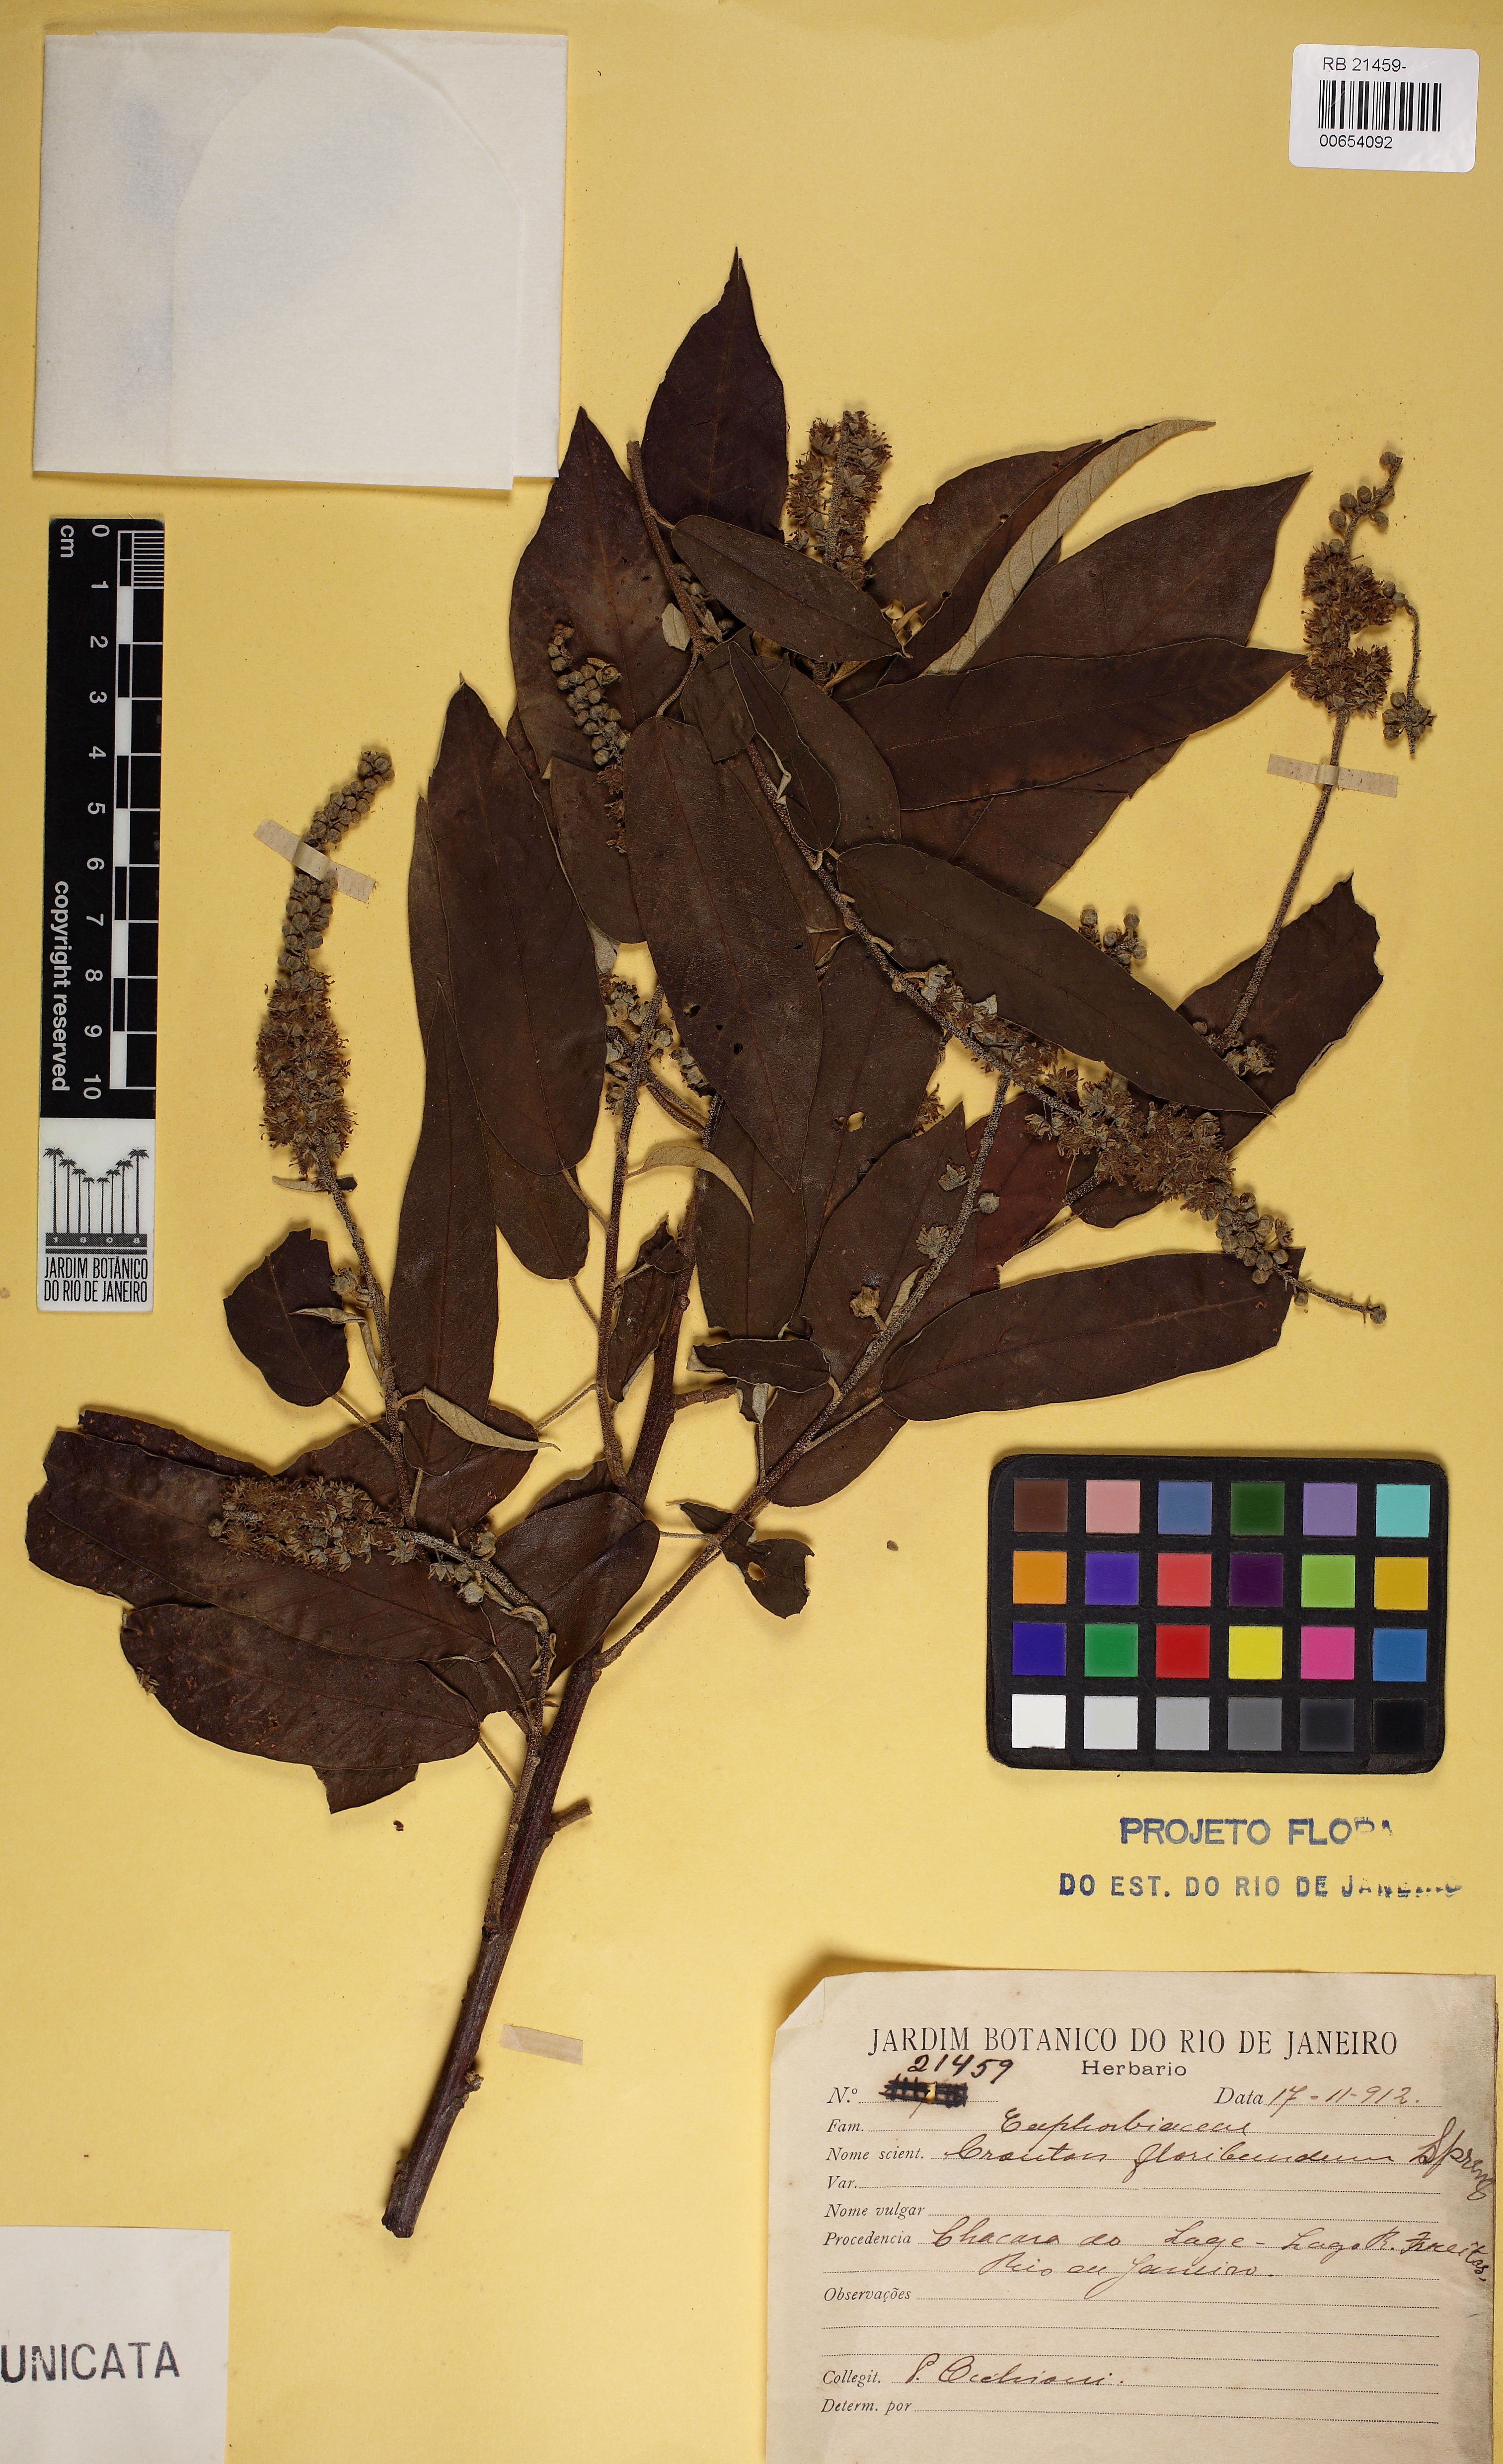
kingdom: Plantae
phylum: Tracheophyta
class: Magnoliopsida
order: Malpighiales
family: Euphorbiaceae
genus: Croton
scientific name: Croton floribundus
